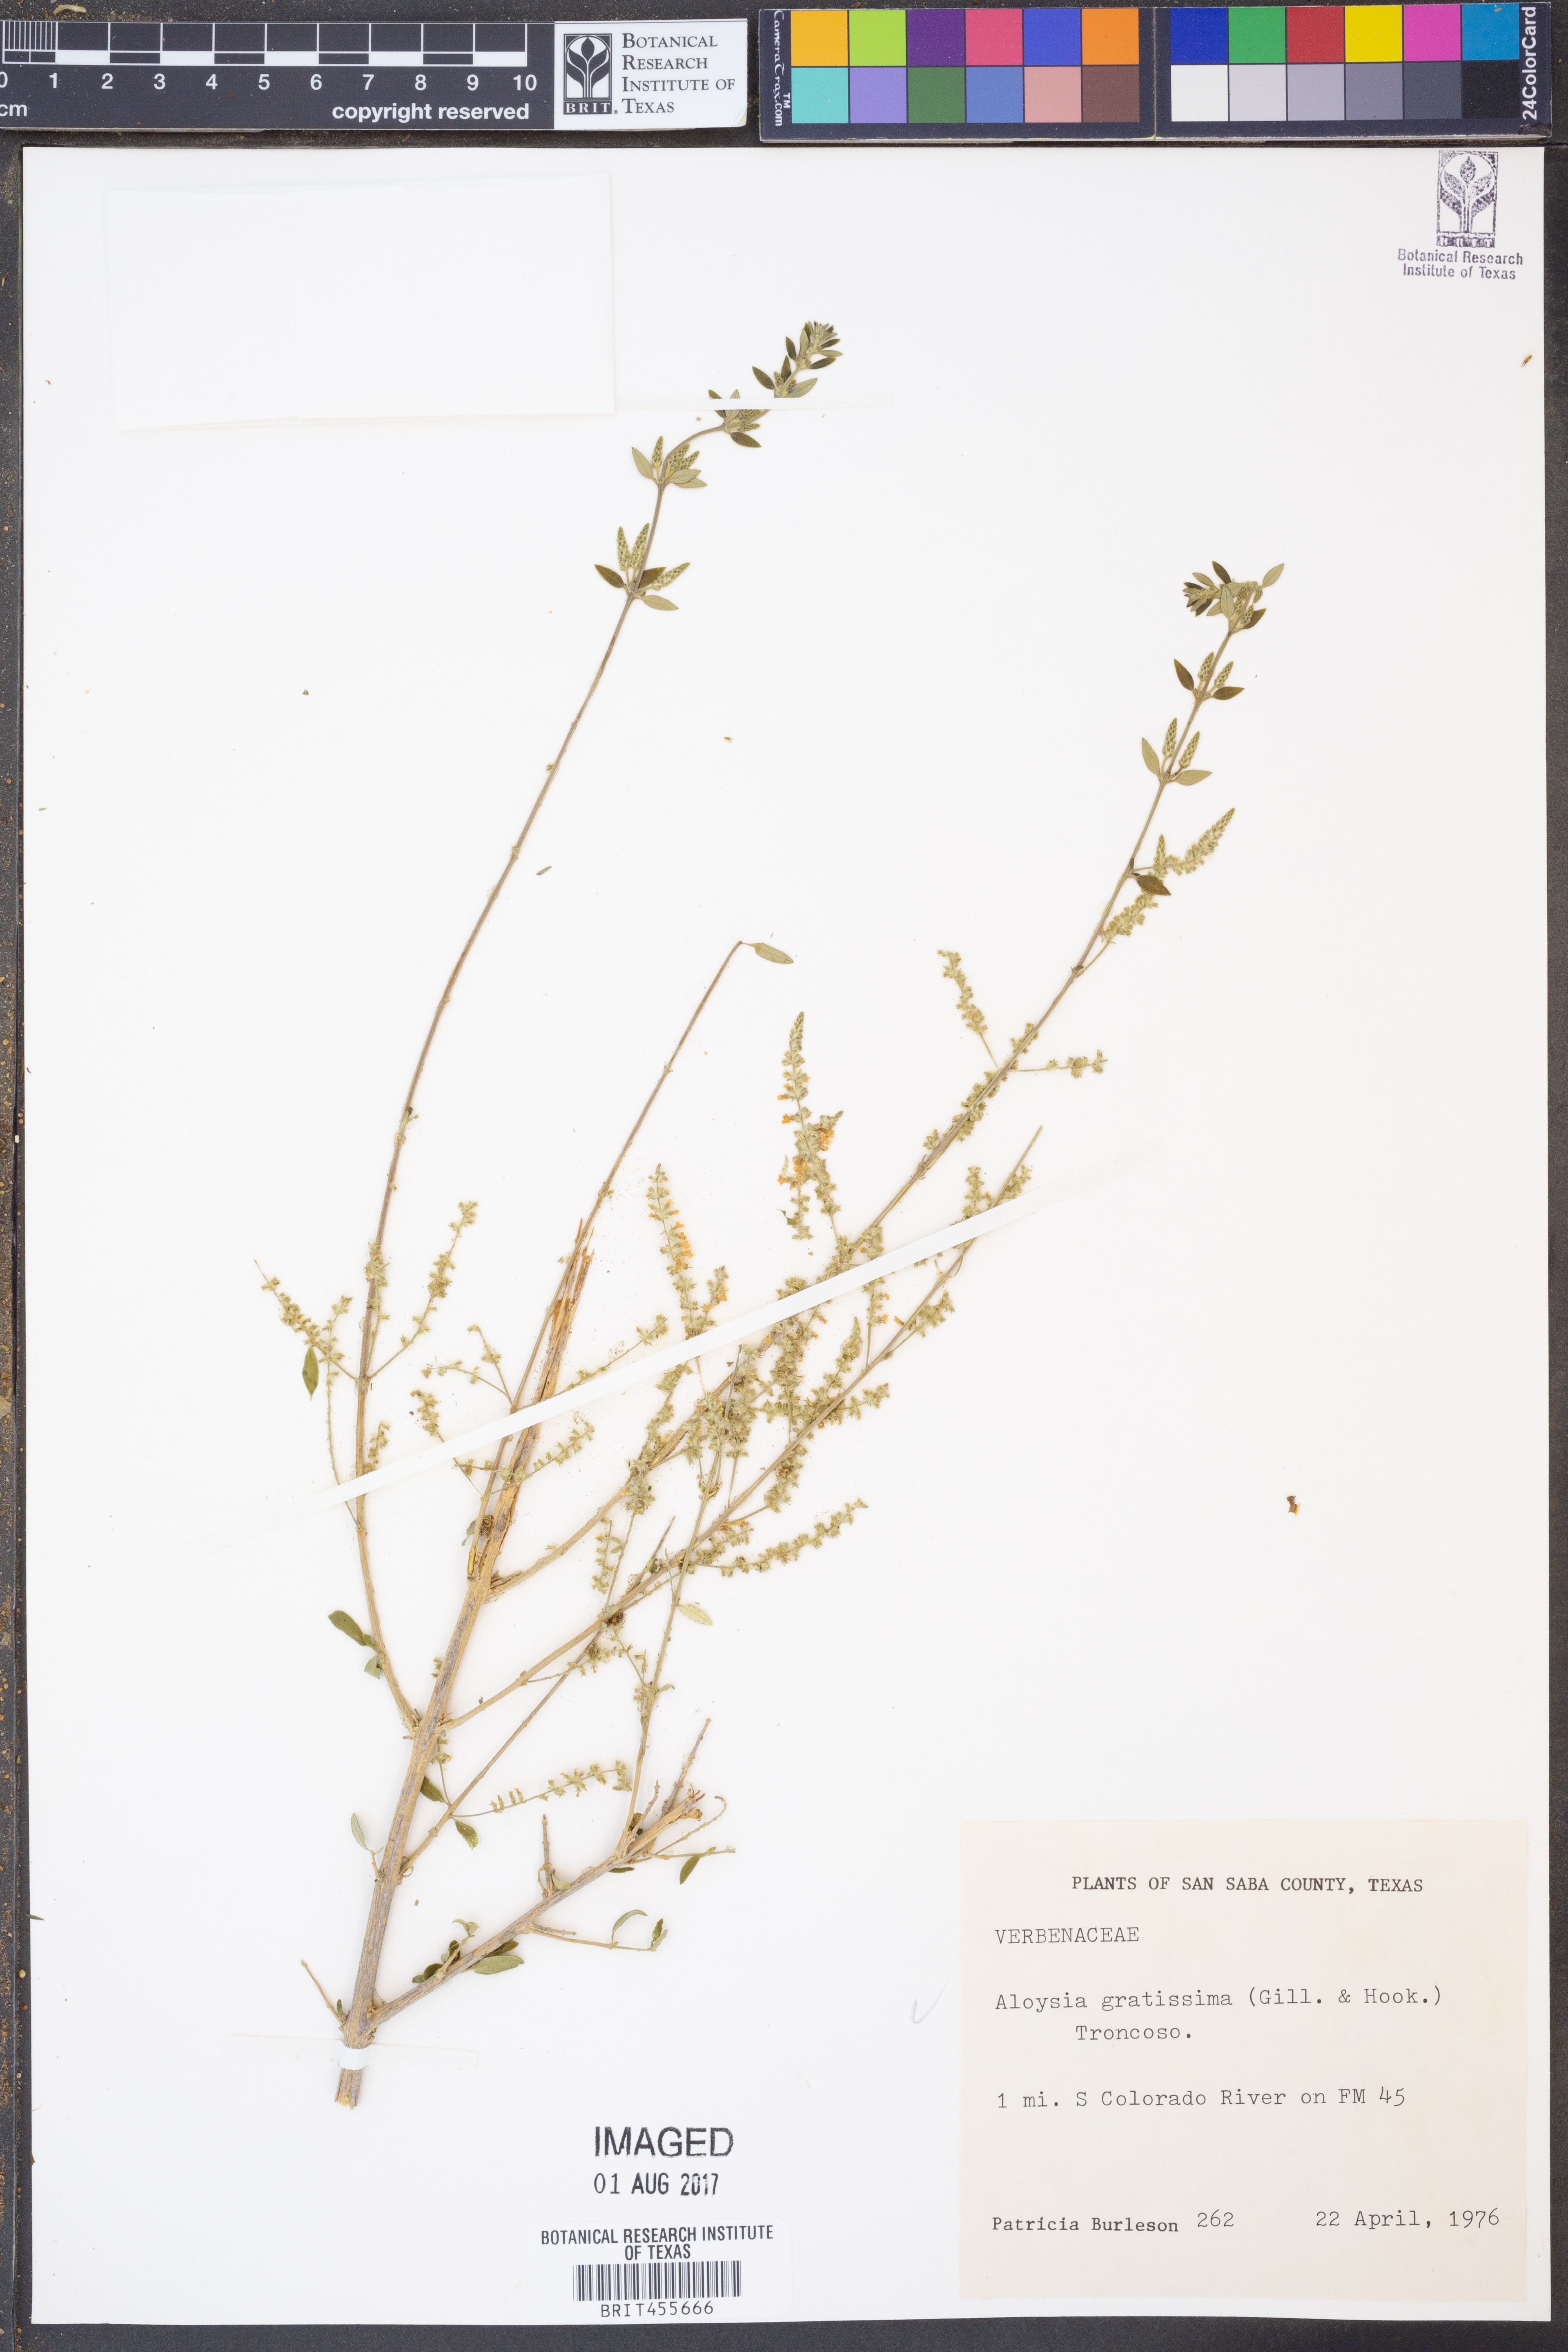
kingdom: Plantae
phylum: Tracheophyta
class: Magnoliopsida
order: Lamiales
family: Verbenaceae
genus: Aloysia
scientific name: Aloysia gratissima
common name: Common bee-brush
